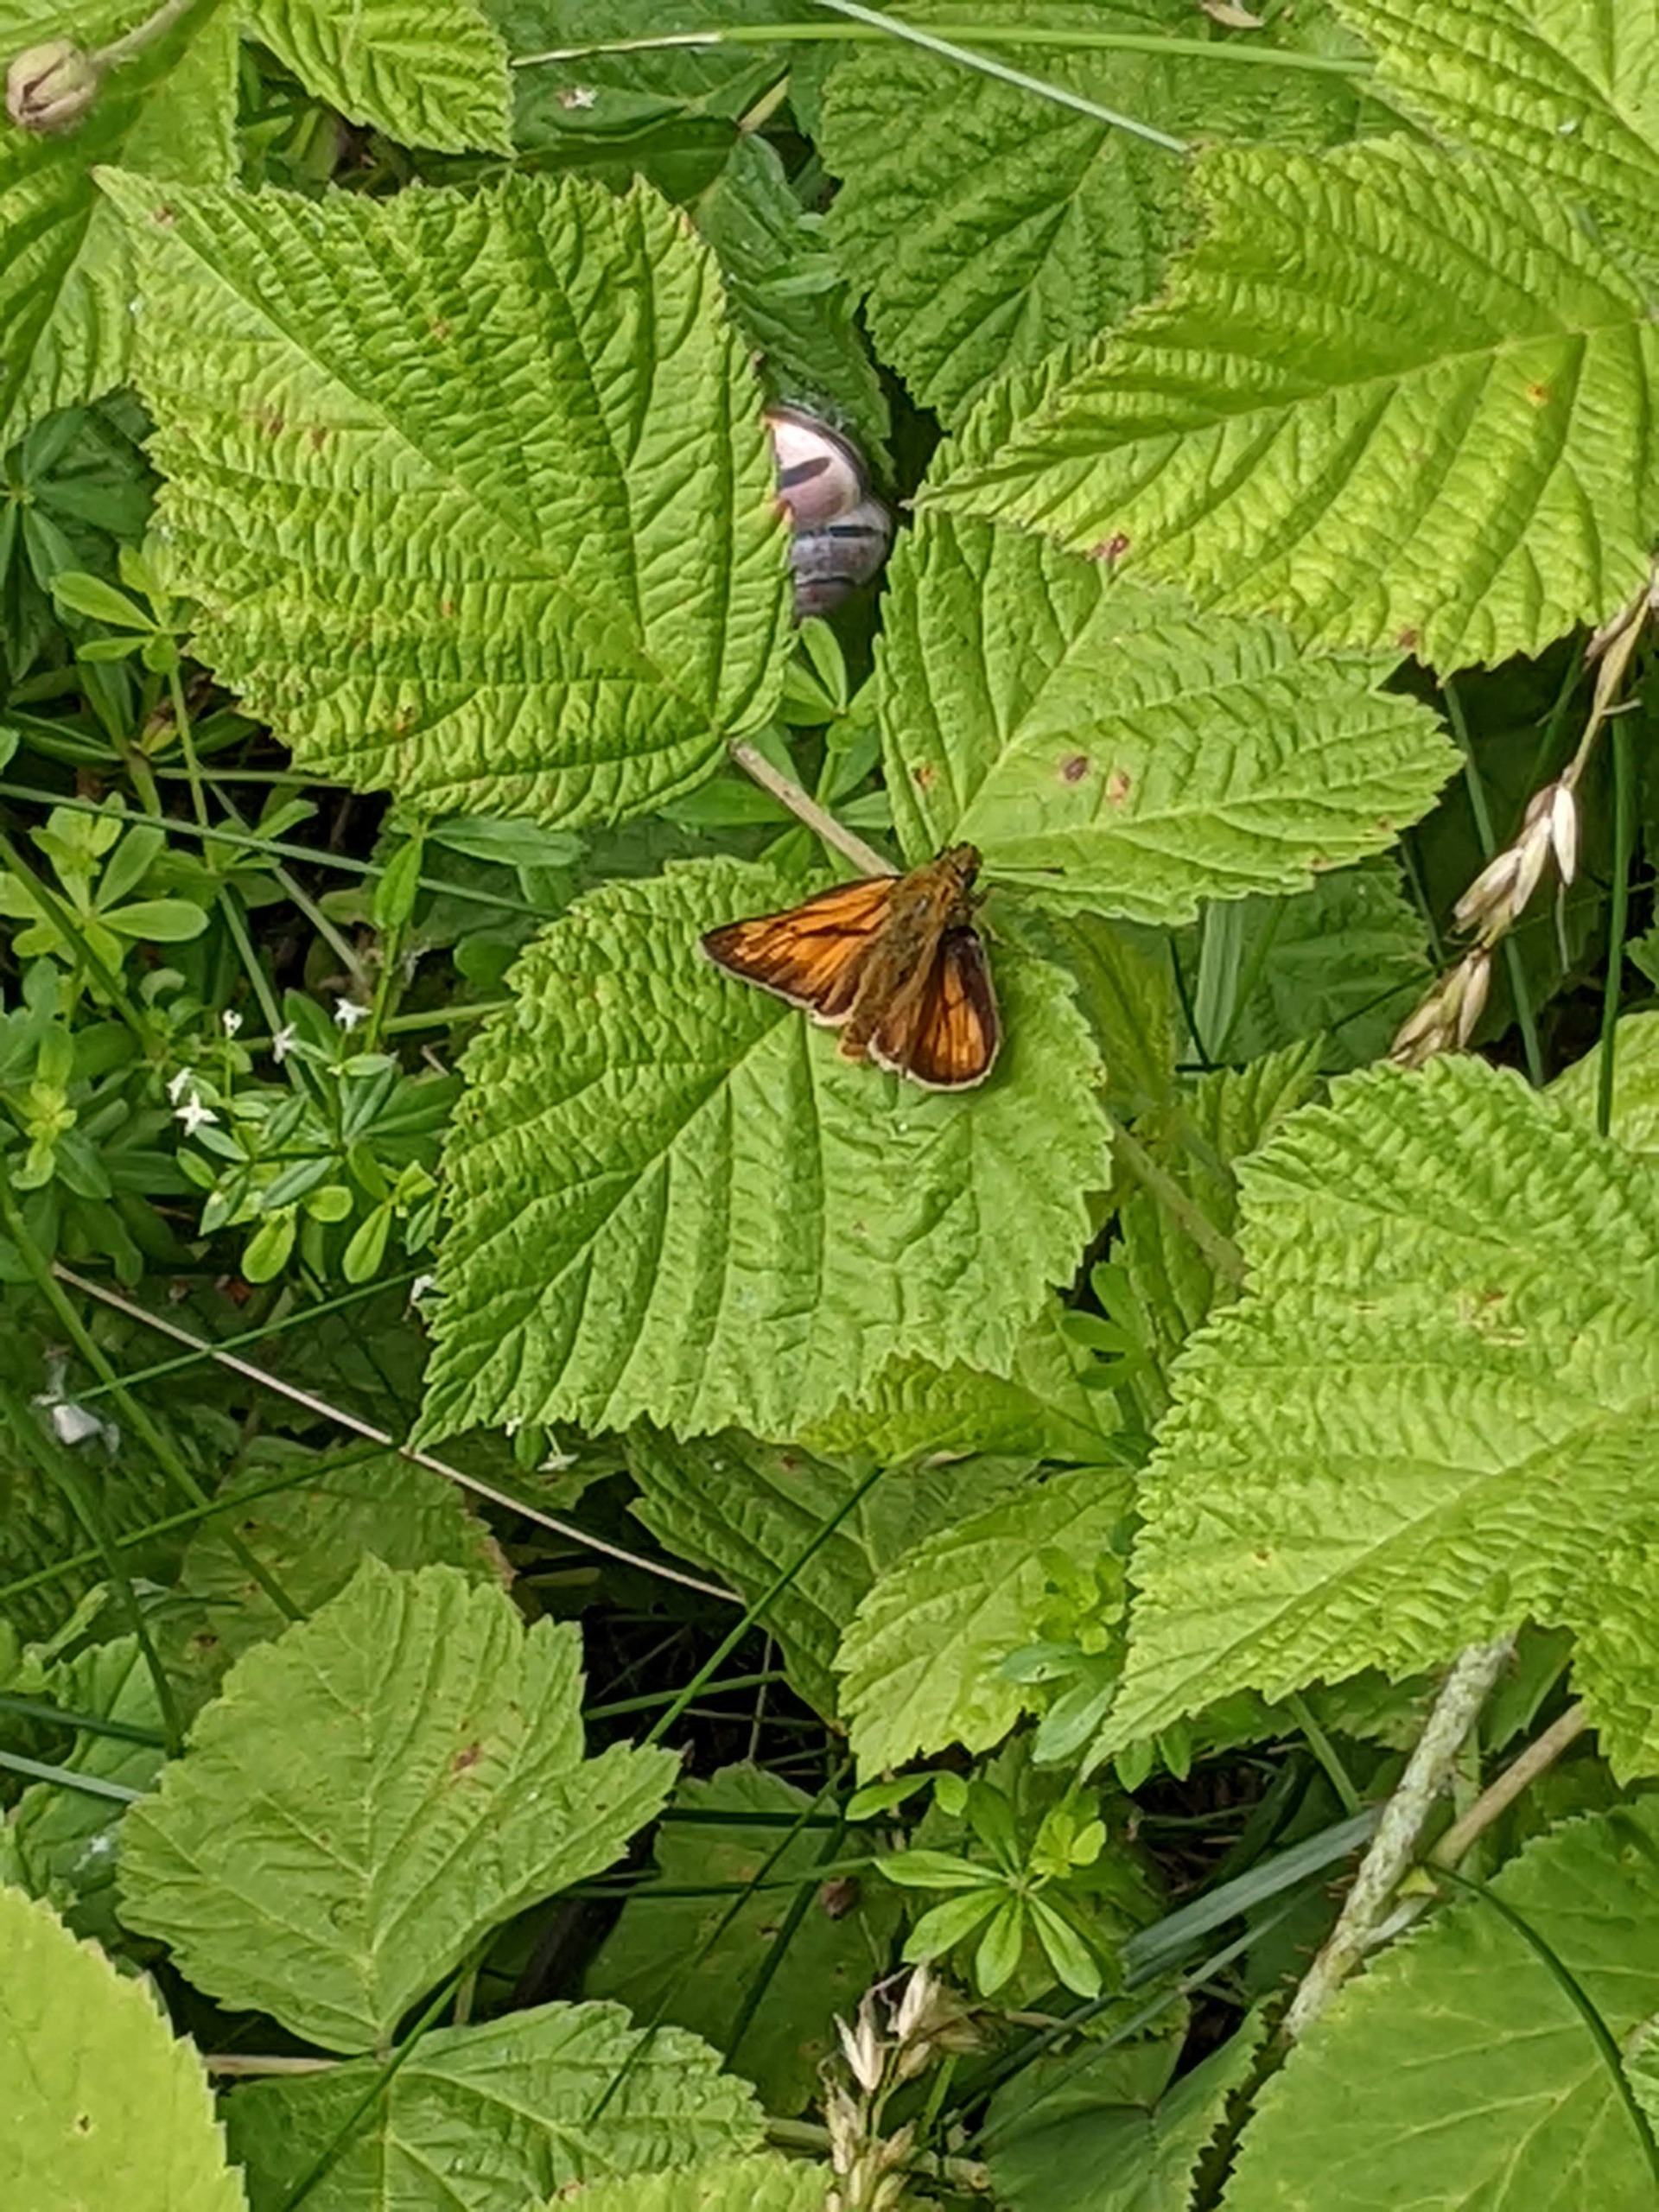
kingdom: Animalia
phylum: Arthropoda
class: Insecta
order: Lepidoptera
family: Hesperiidae
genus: Ochlodes
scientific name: Ochlodes venata
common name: Stor bredpande
